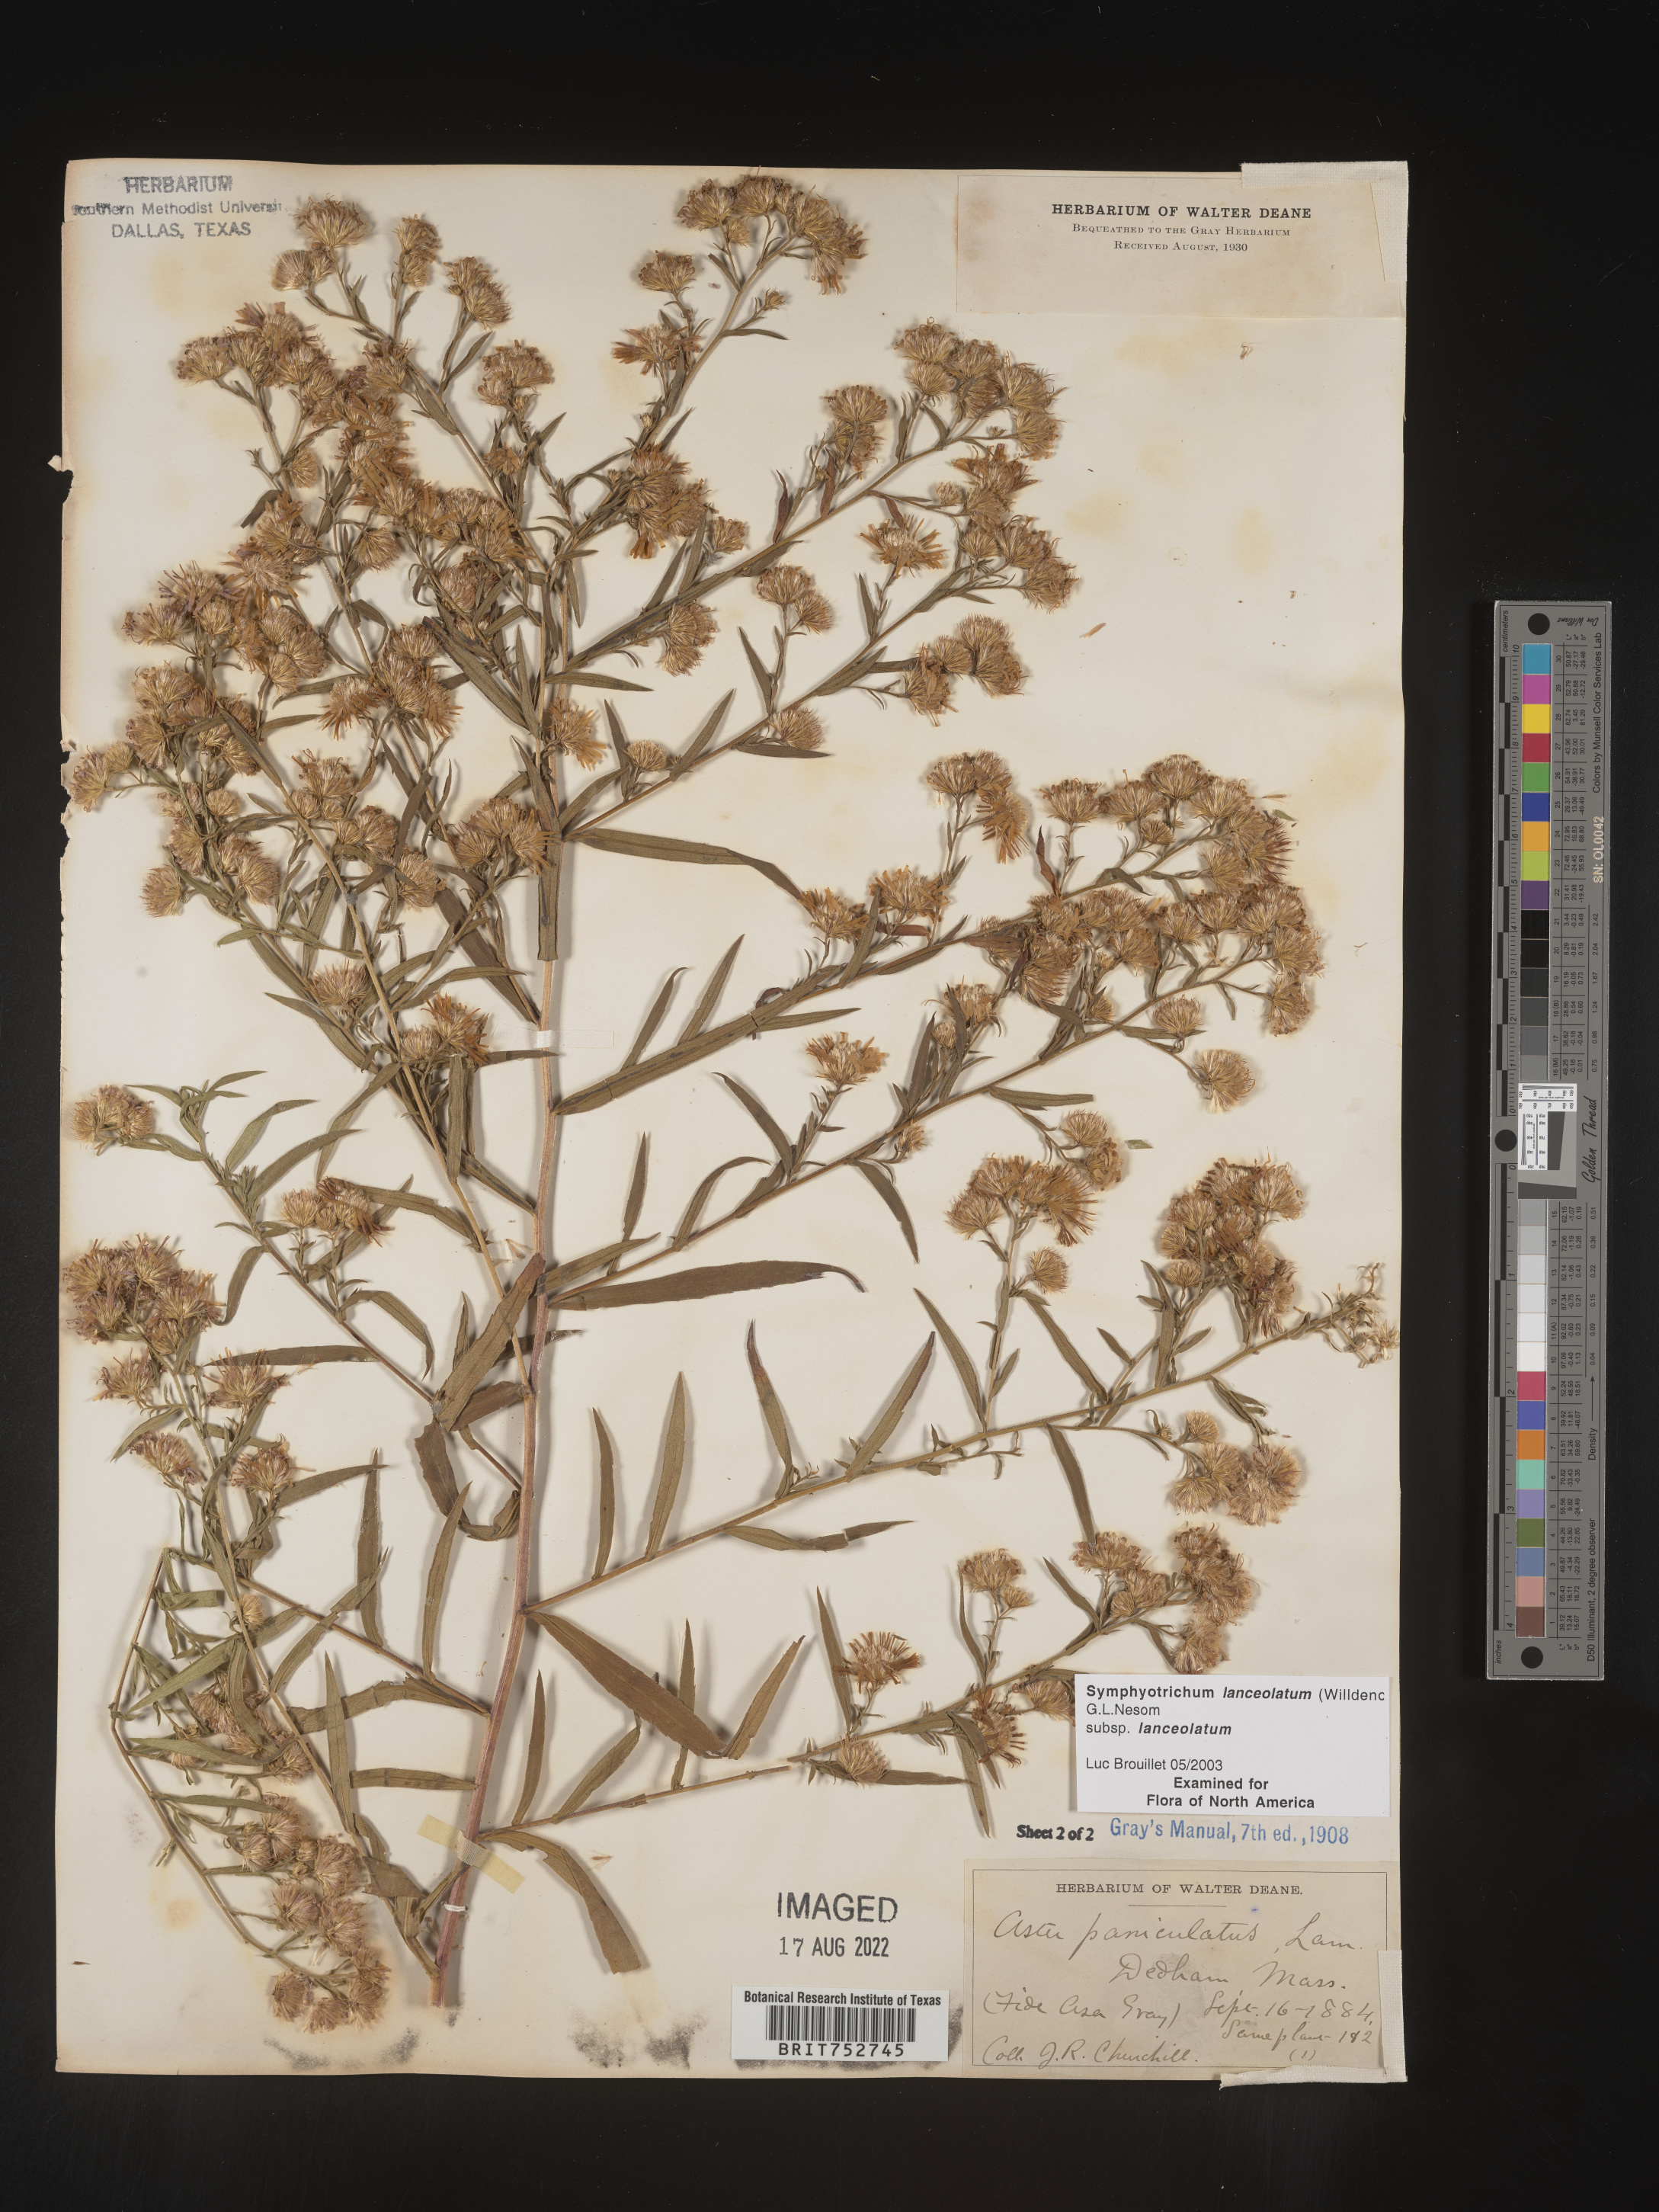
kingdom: Plantae
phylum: Tracheophyta
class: Magnoliopsida
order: Asterales
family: Asteraceae
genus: Symphyotrichum
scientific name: Symphyotrichum lanceolatum
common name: Panicled aster
